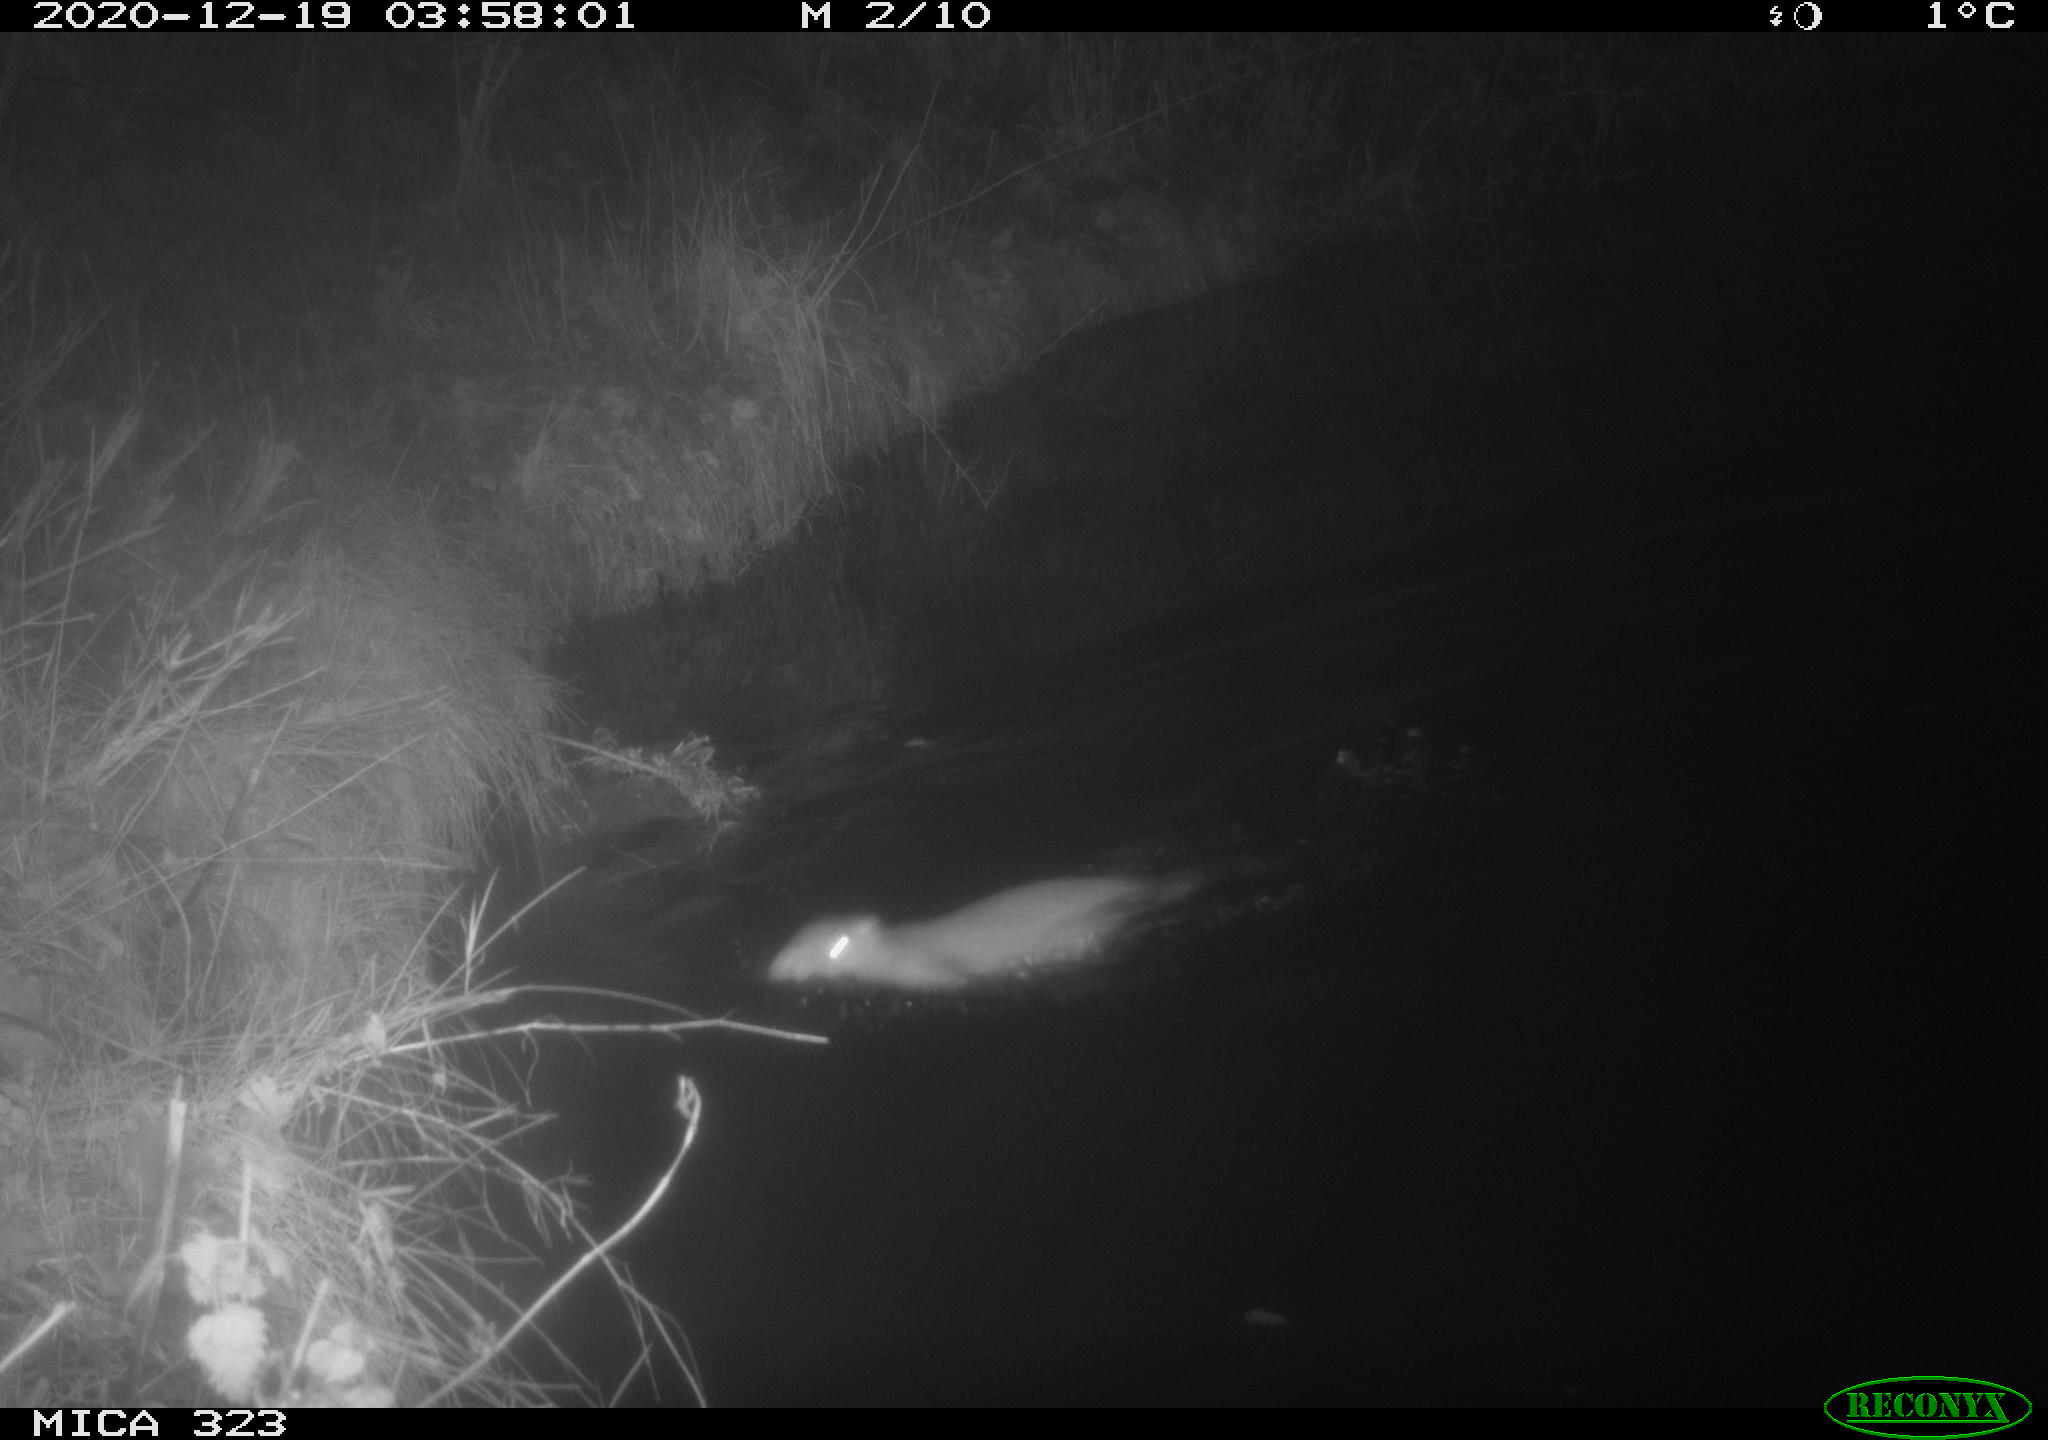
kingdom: Animalia
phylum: Chordata
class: Mammalia
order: Rodentia
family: Myocastoridae
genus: Myocastor
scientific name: Myocastor coypus
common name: Coypu
